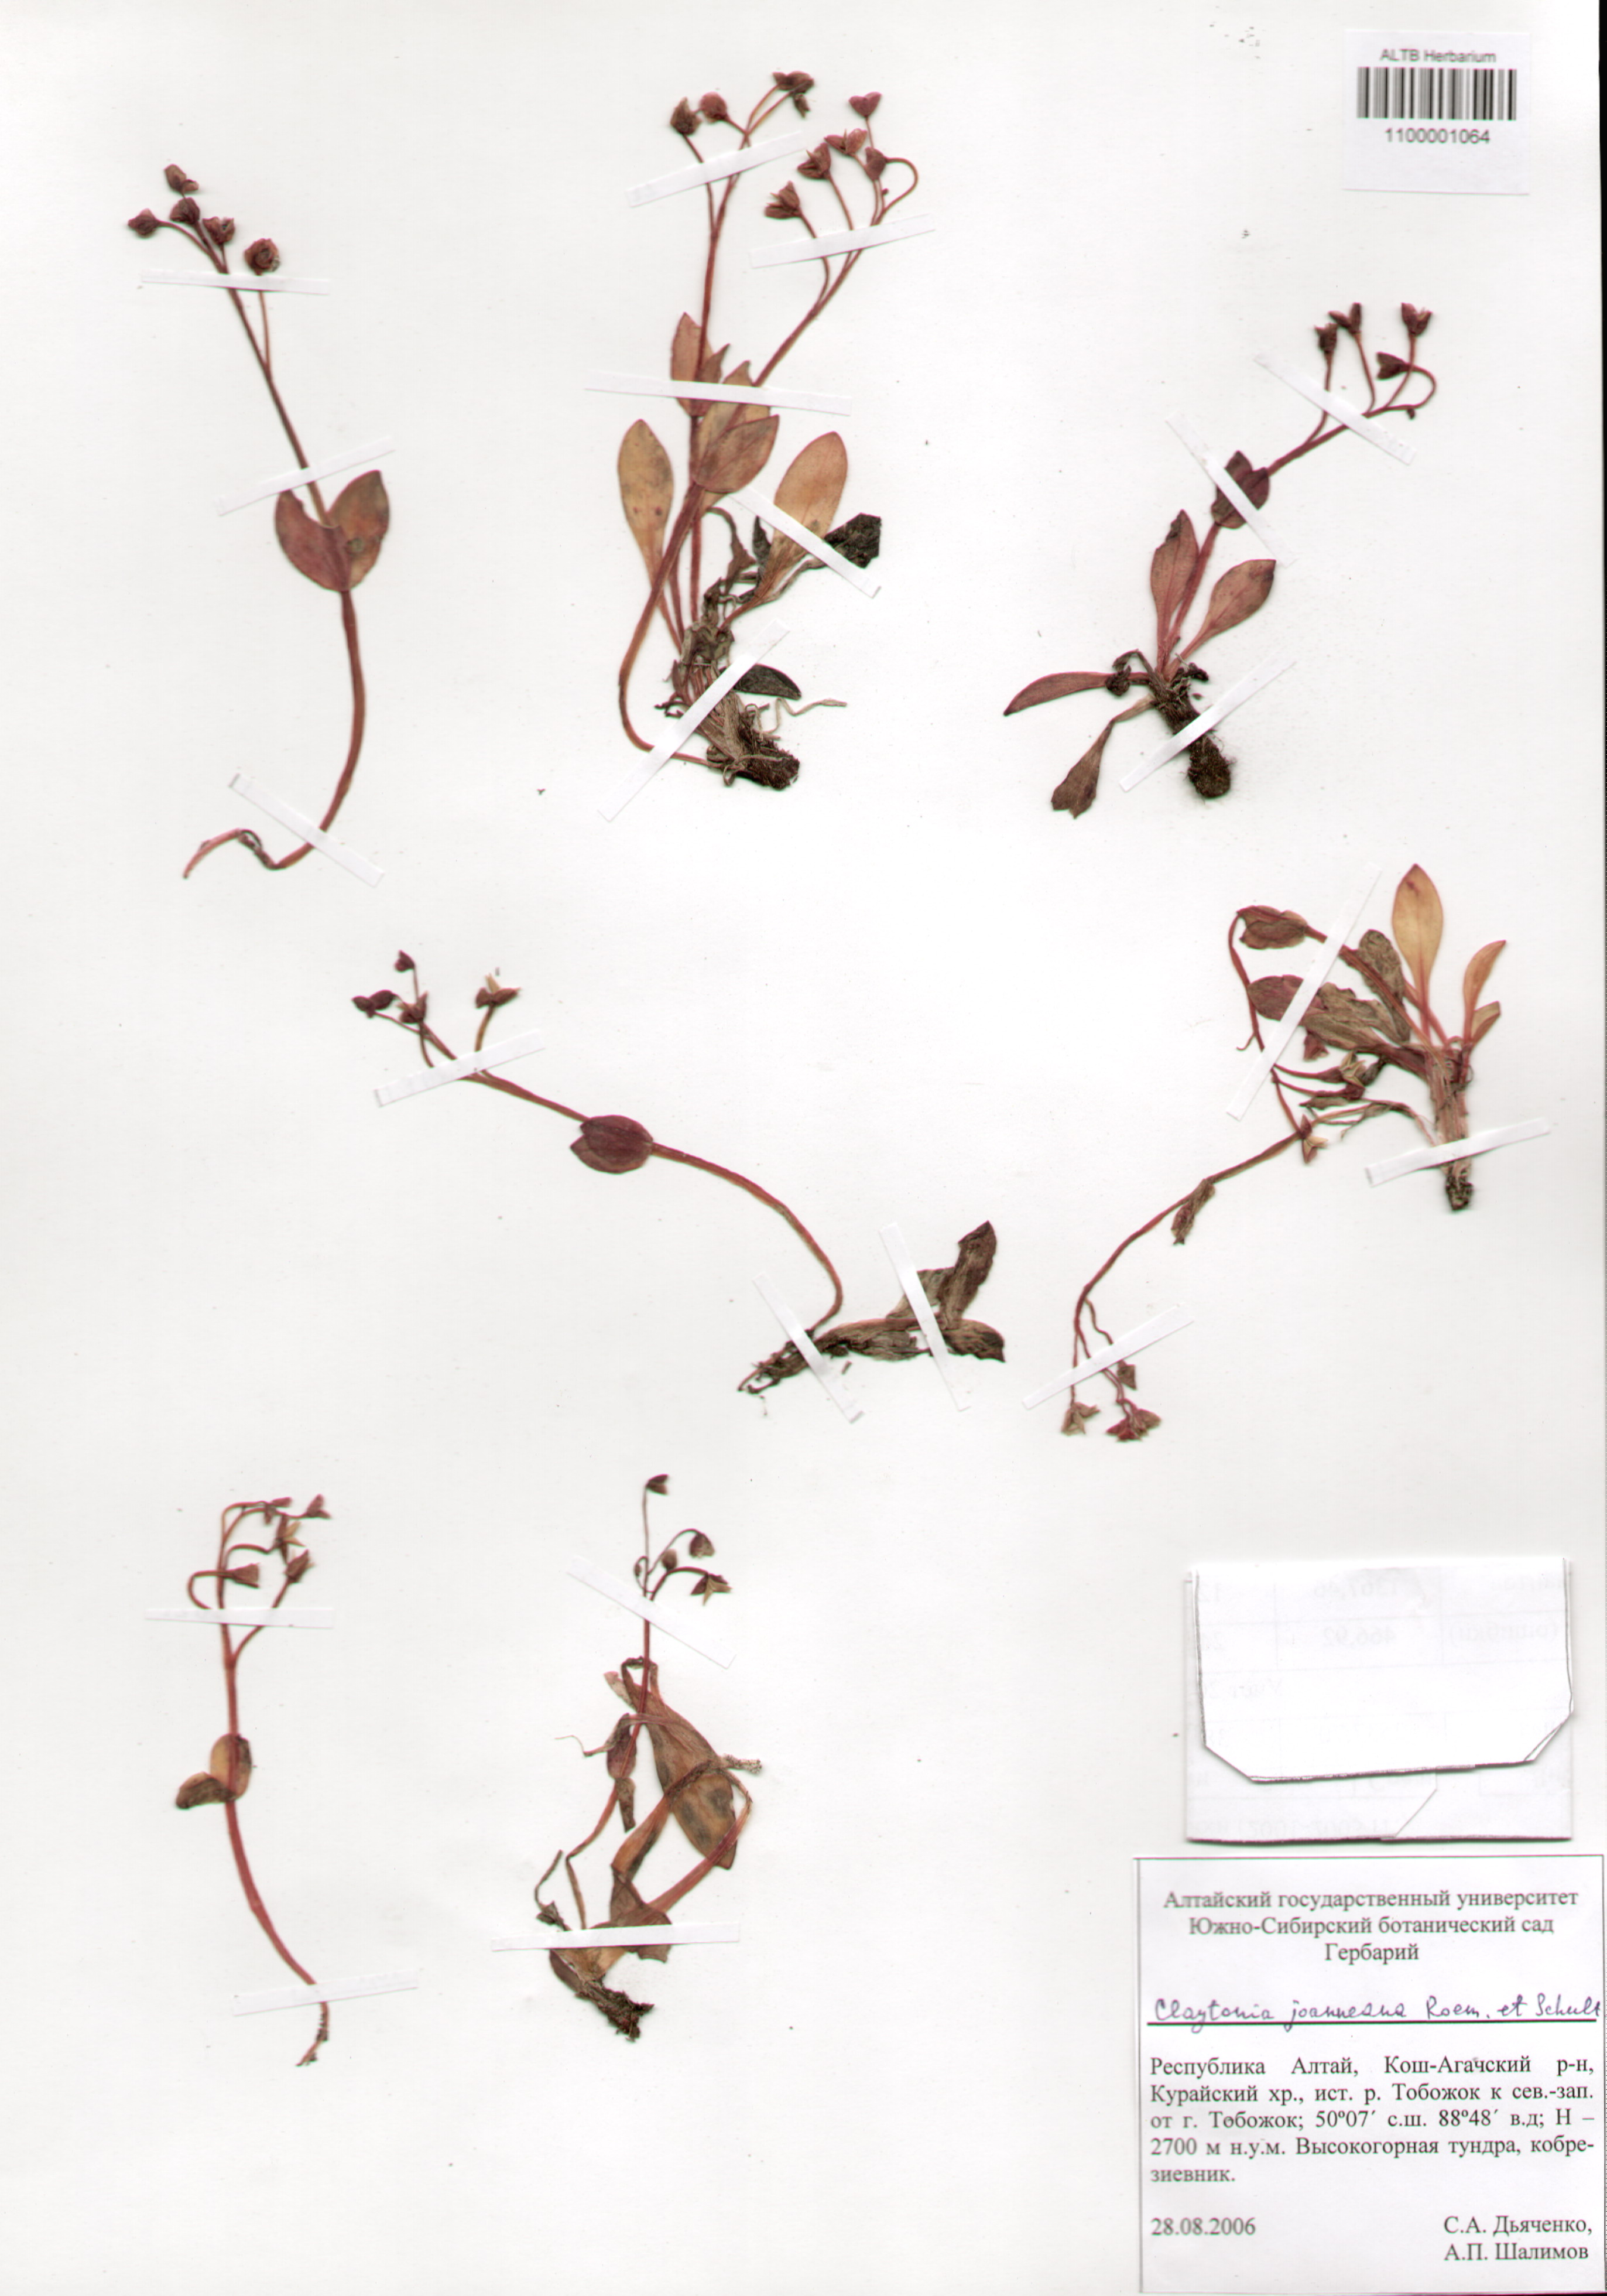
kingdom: Plantae
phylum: Tracheophyta
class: Magnoliopsida
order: Caryophyllales
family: Montiaceae
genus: Claytonia
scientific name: Claytonia joanneana
